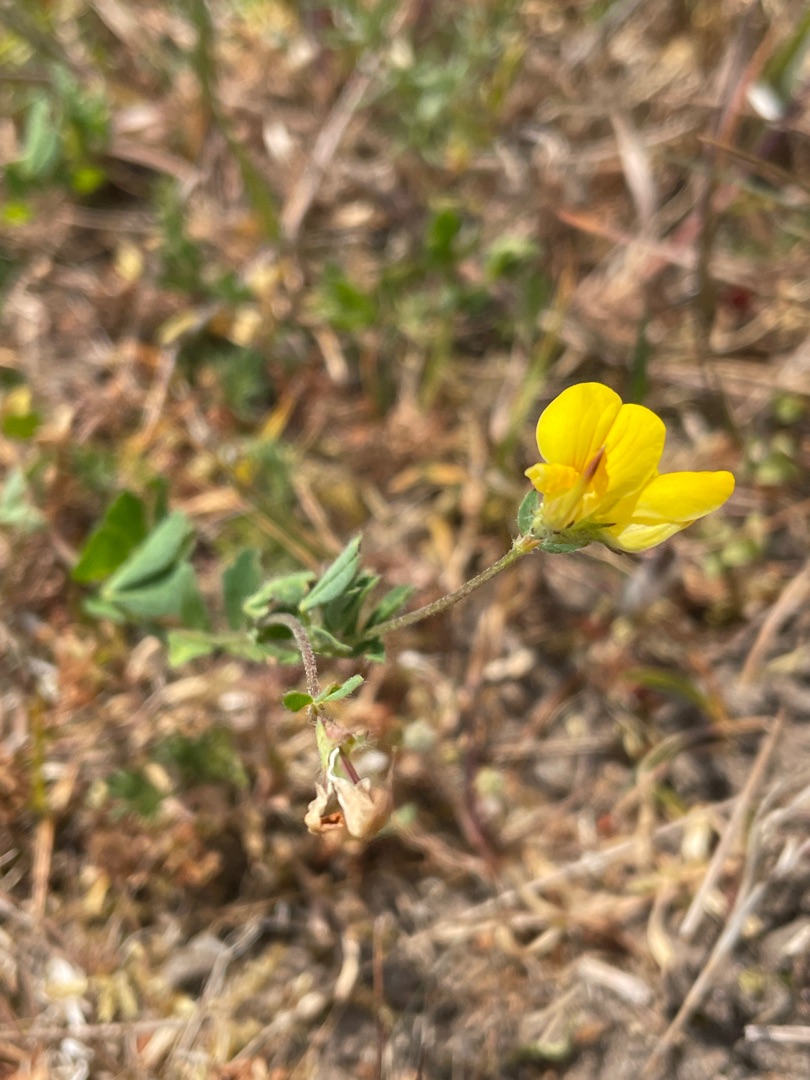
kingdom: Plantae
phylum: Tracheophyta
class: Magnoliopsida
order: Fabales
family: Fabaceae
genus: Lotus
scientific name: Lotus corniculatus
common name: Almindelig kællingetand
